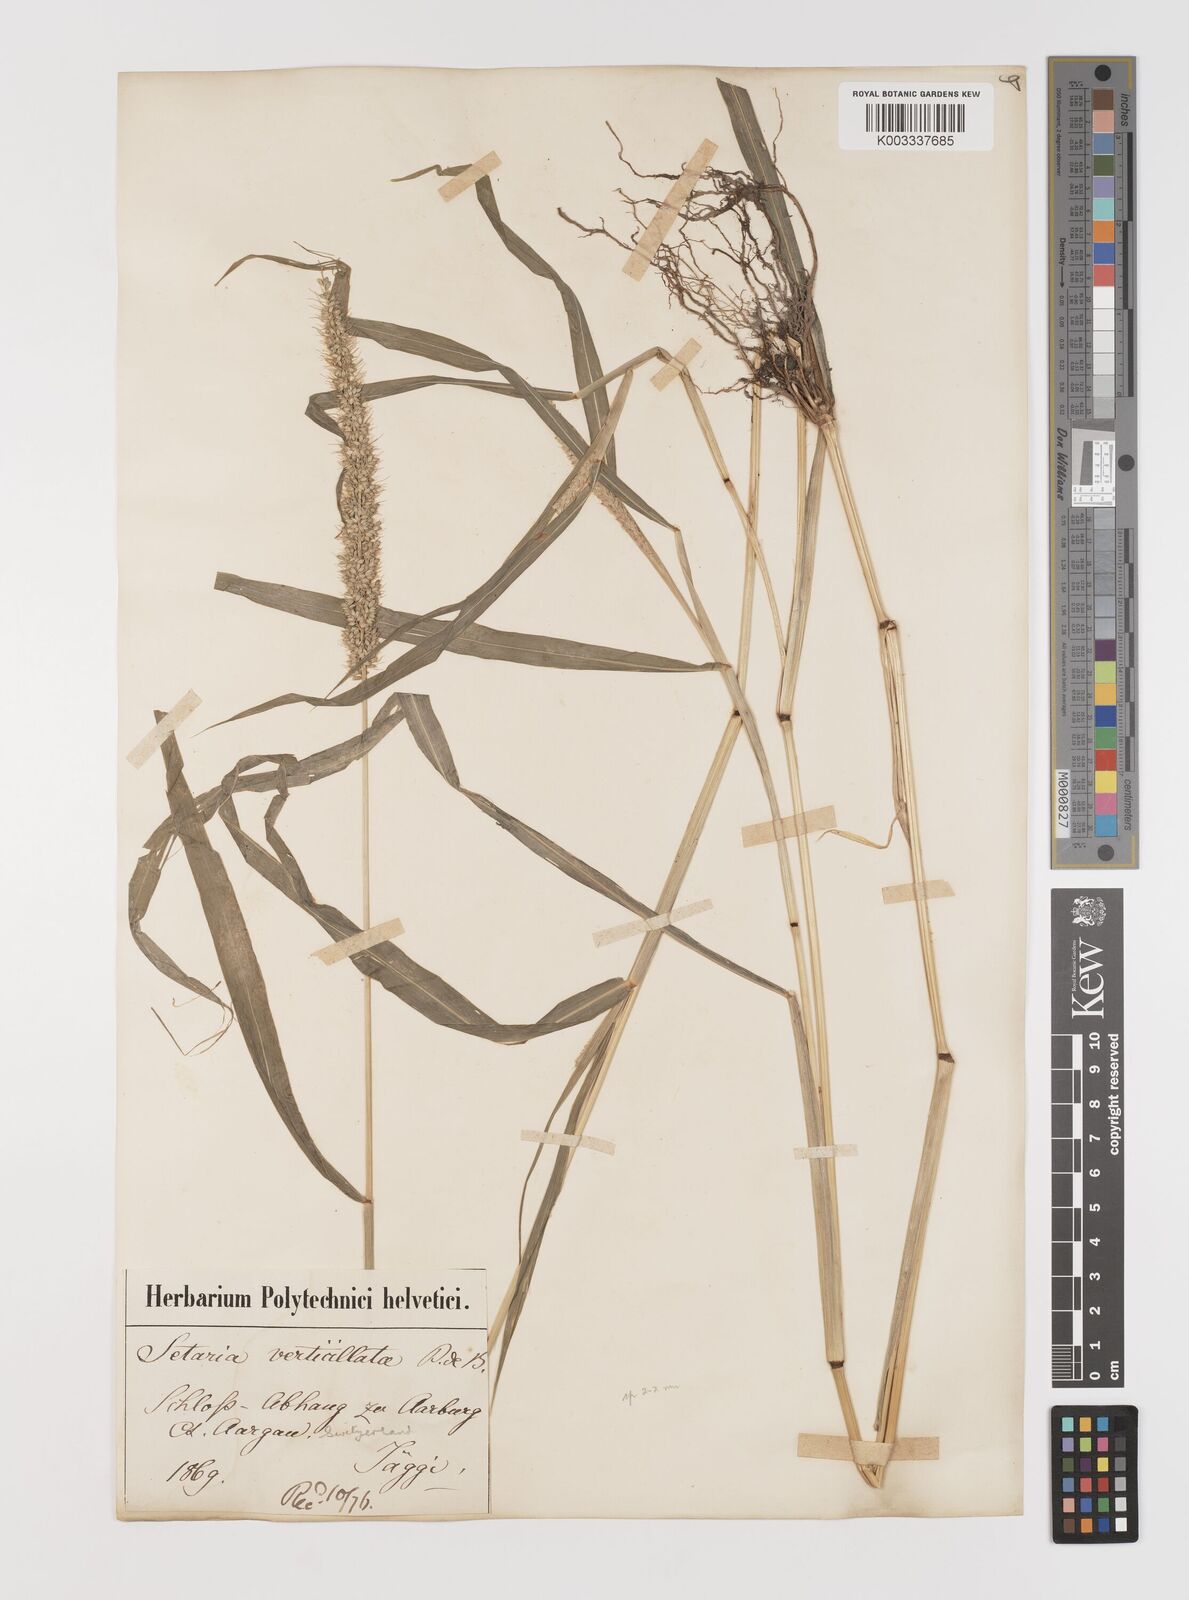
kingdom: Plantae
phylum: Tracheophyta
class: Liliopsida
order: Poales
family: Poaceae
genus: Setaria
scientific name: Setaria verticillata
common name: Hooked bristlegrass
